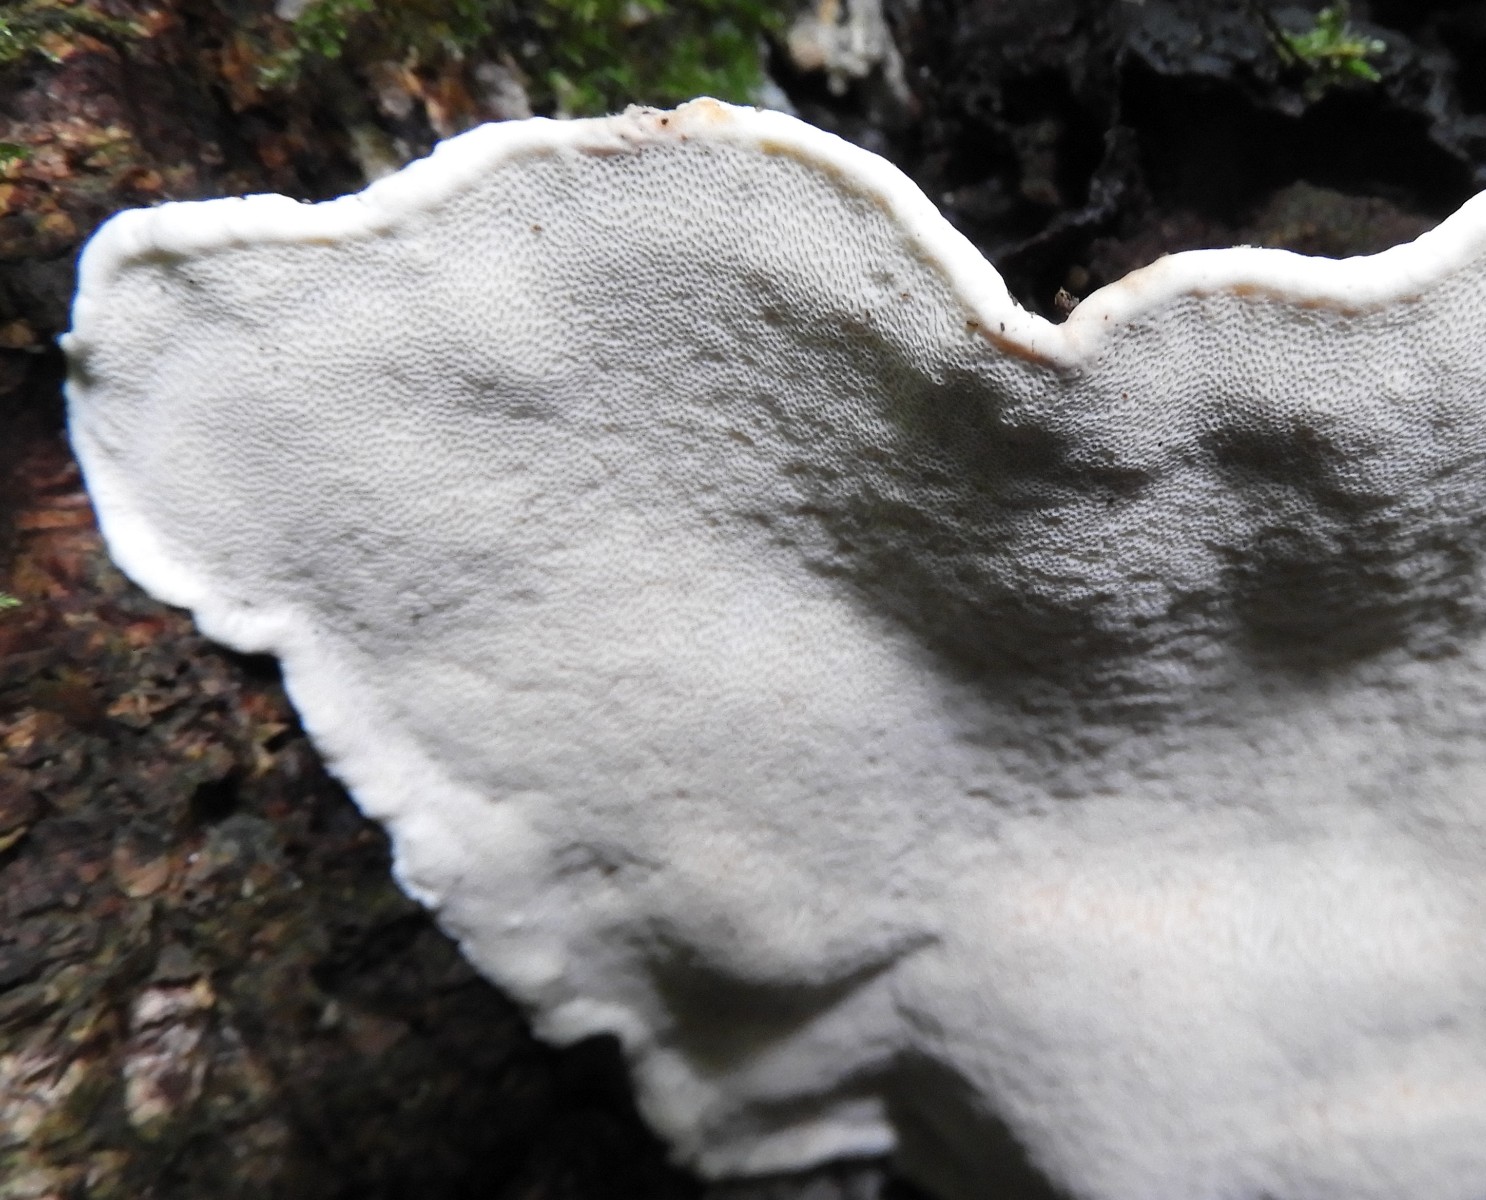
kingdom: Fungi
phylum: Basidiomycota
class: Agaricomycetes
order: Russulales
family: Bondarzewiaceae
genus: Heterobasidion
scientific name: Heterobasidion annosum
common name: almindelig rodfordærver
